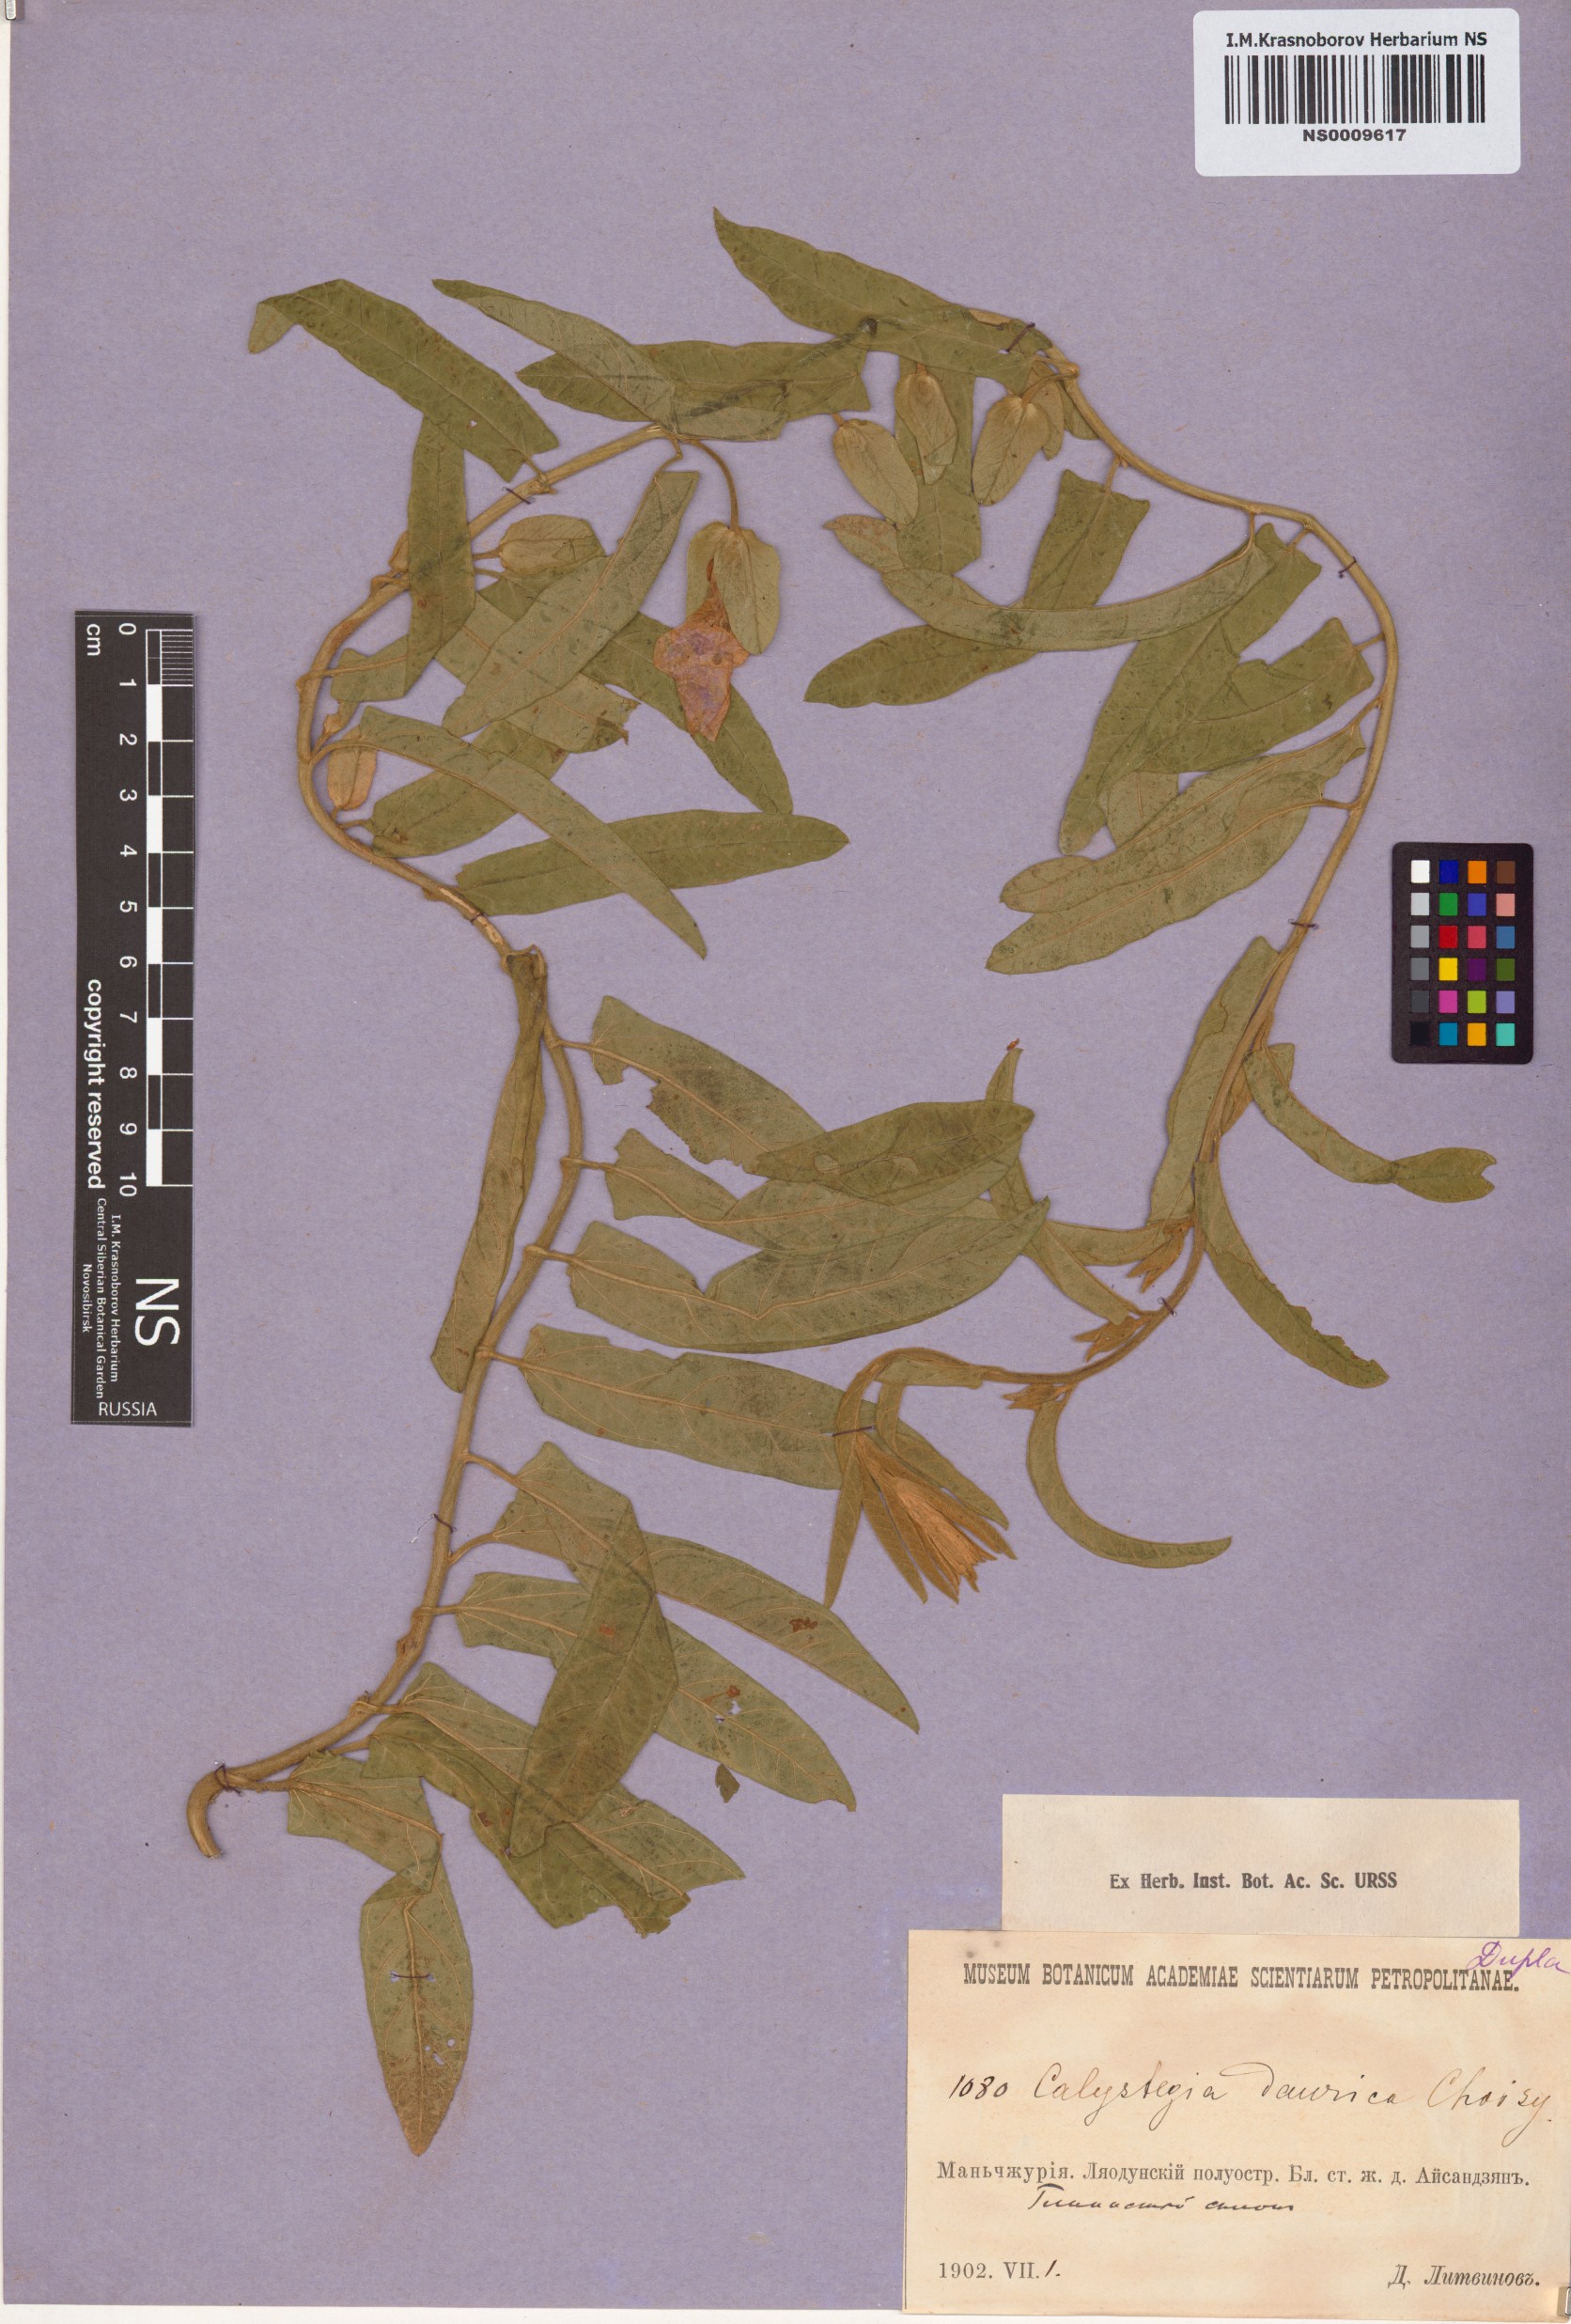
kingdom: Plantae
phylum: Tracheophyta
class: Magnoliopsida
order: Solanales
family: Convolvulaceae
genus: Calystegia
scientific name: Calystegia pellita
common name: Hairy bindweed
